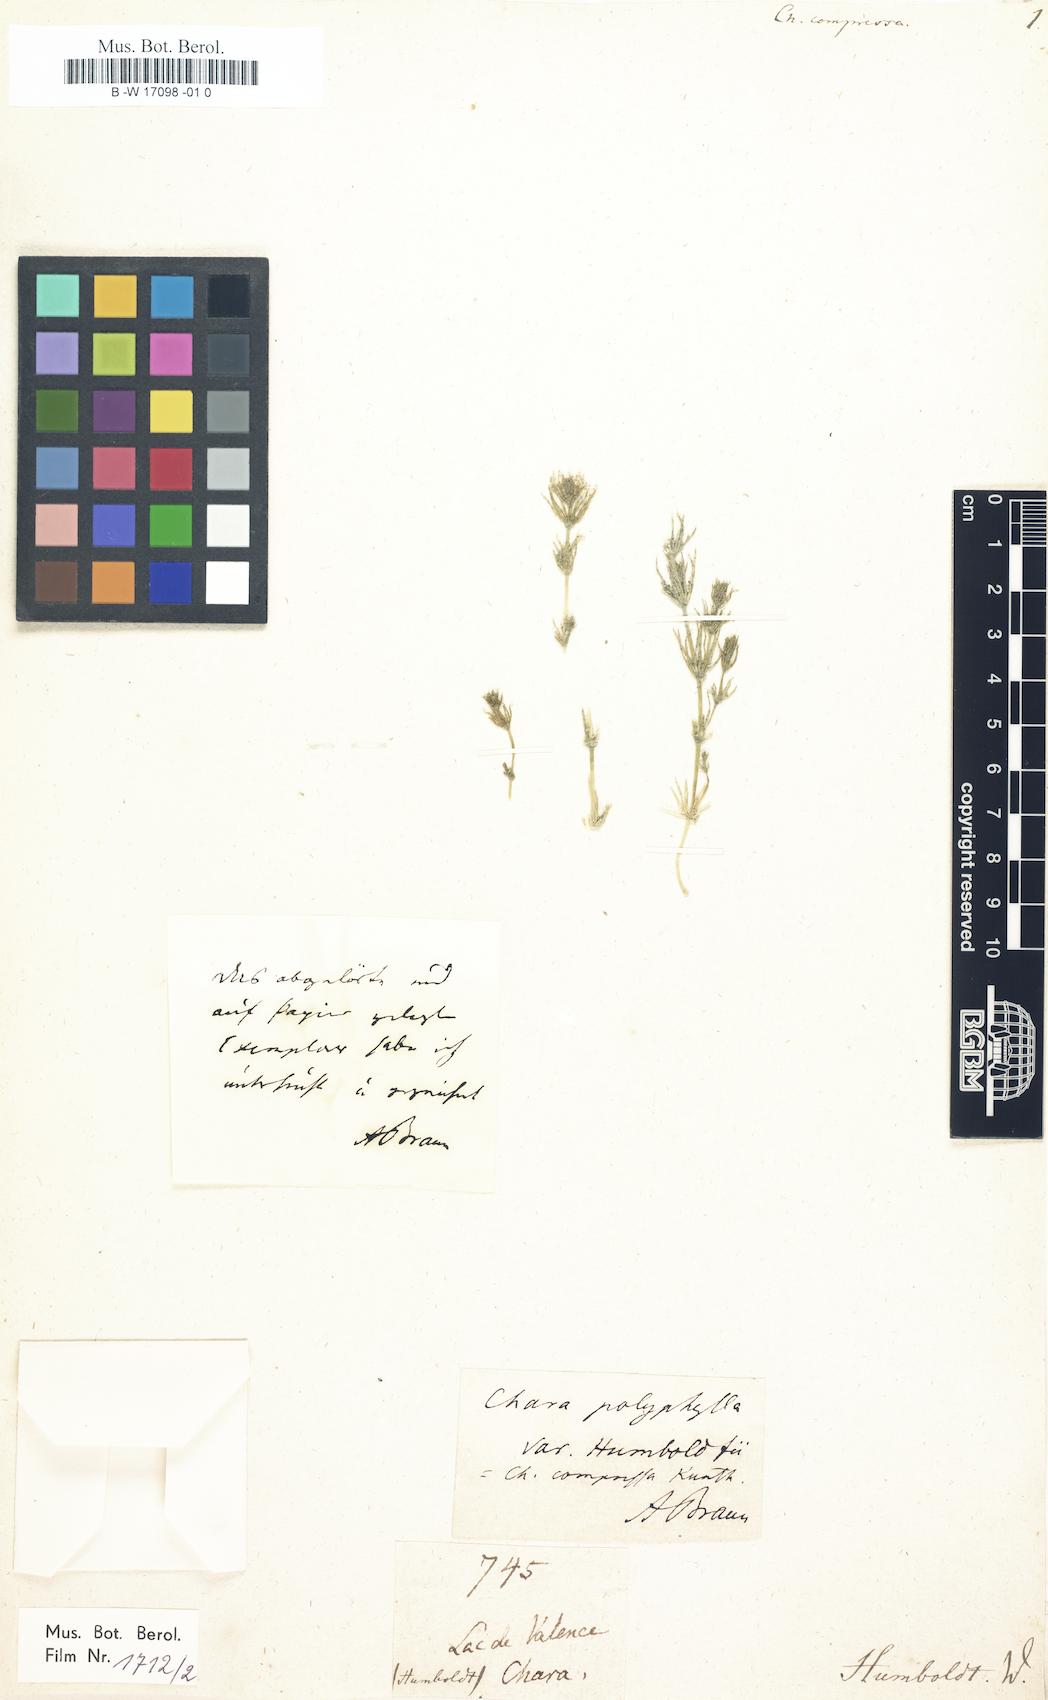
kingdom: Plantae
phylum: Charophyta
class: Charophyceae
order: Charales
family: Characeae
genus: Chara
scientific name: Chara zeylanica
